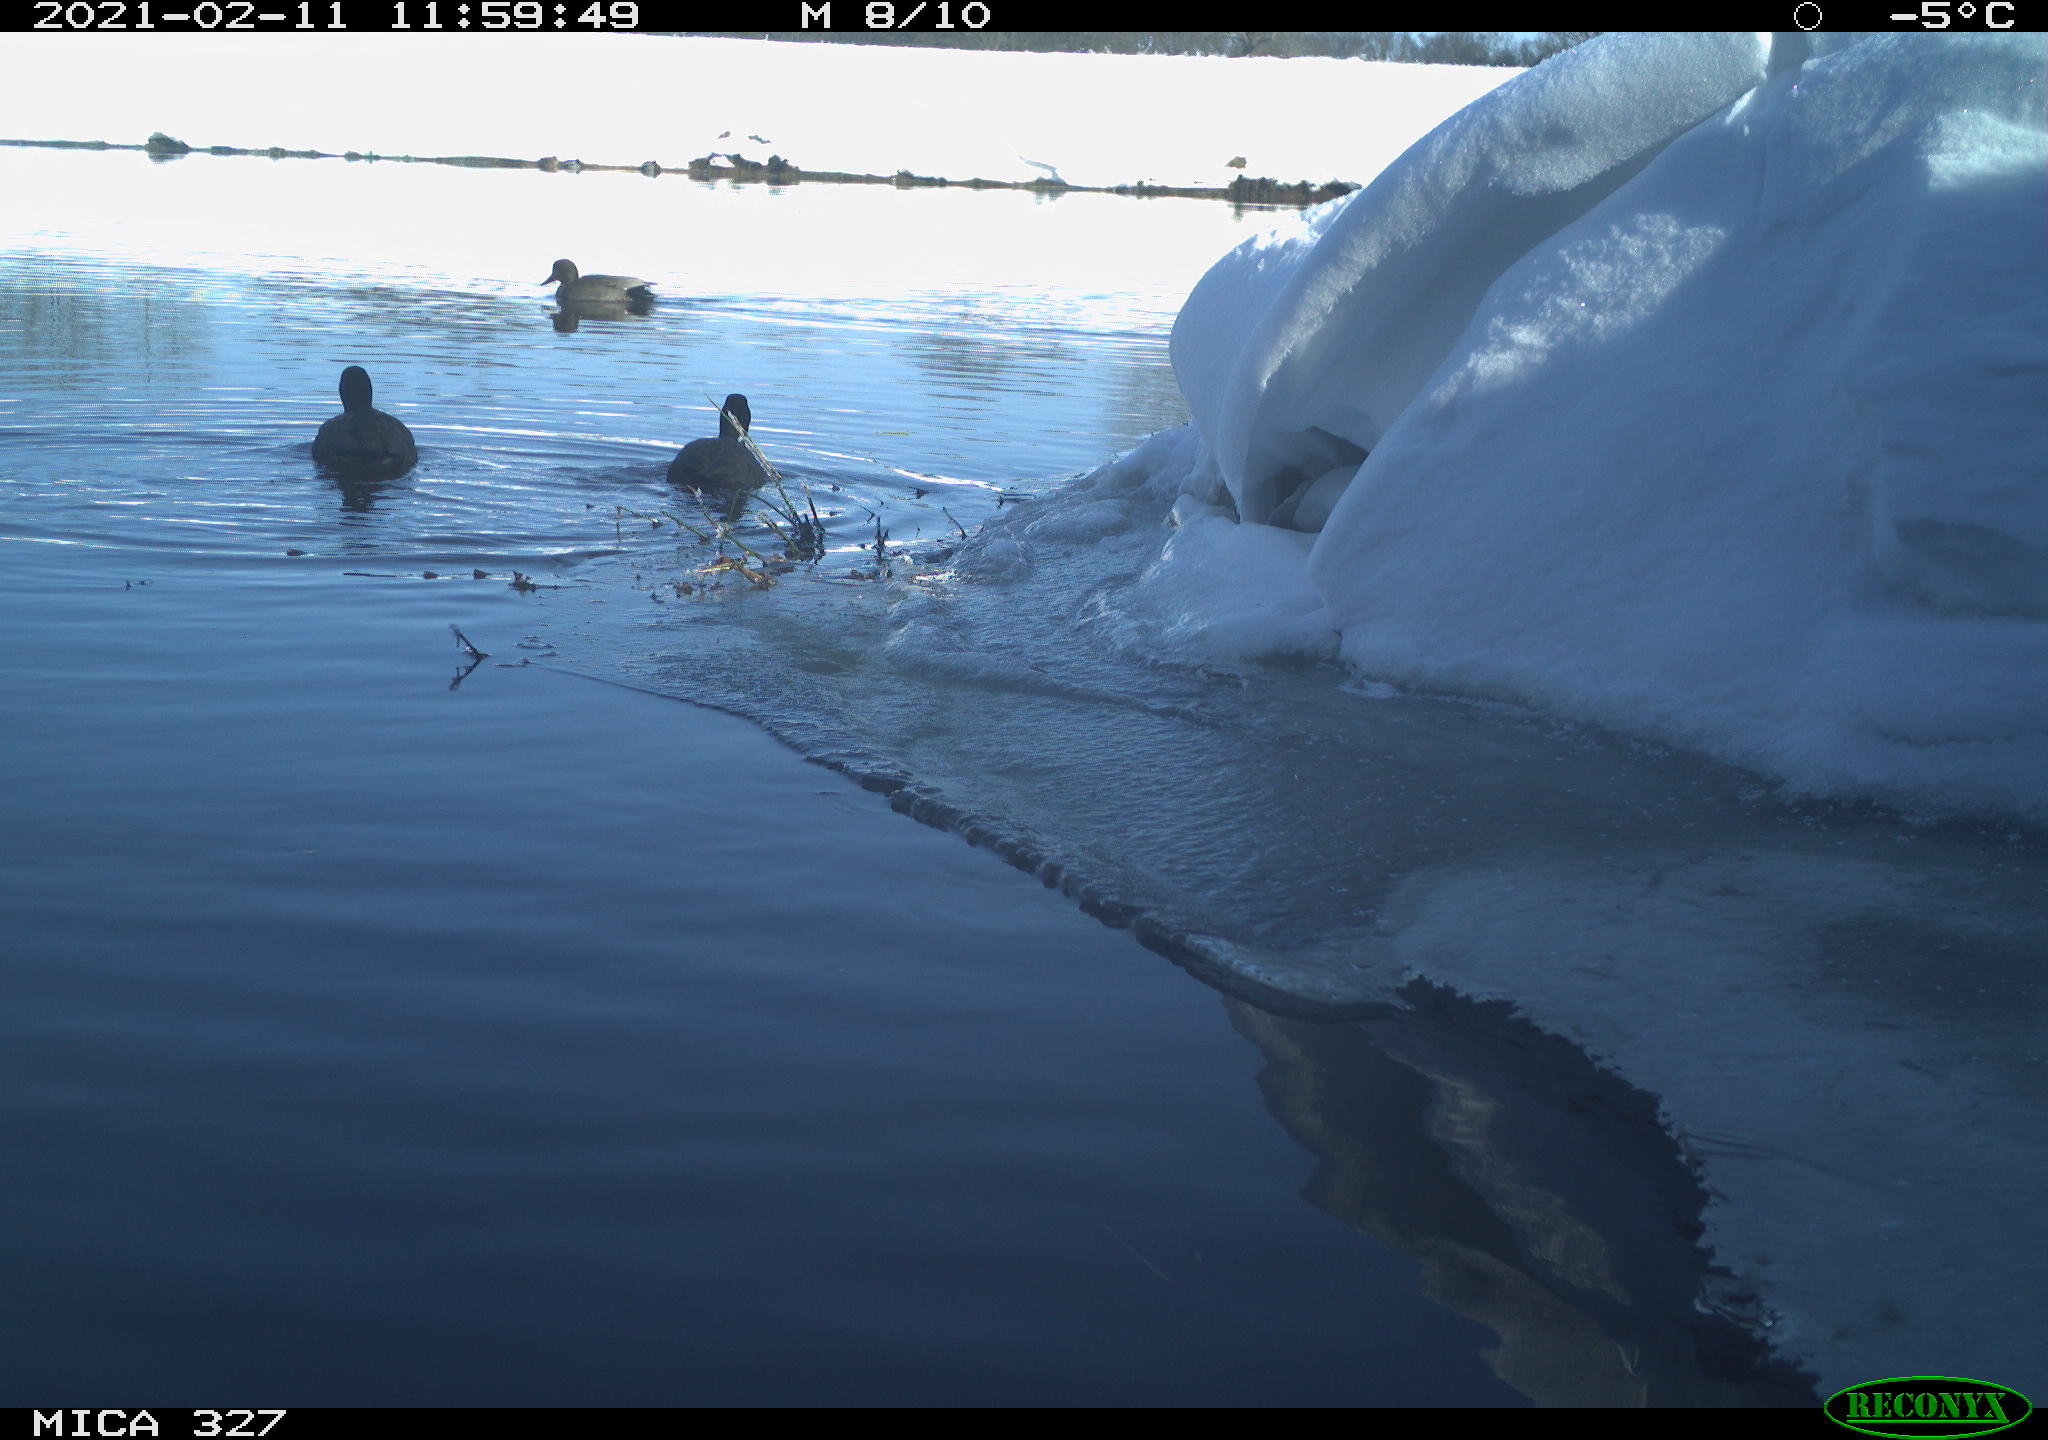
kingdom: Animalia
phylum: Chordata
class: Aves
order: Anseriformes
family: Anatidae
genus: Anas
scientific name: Anas
